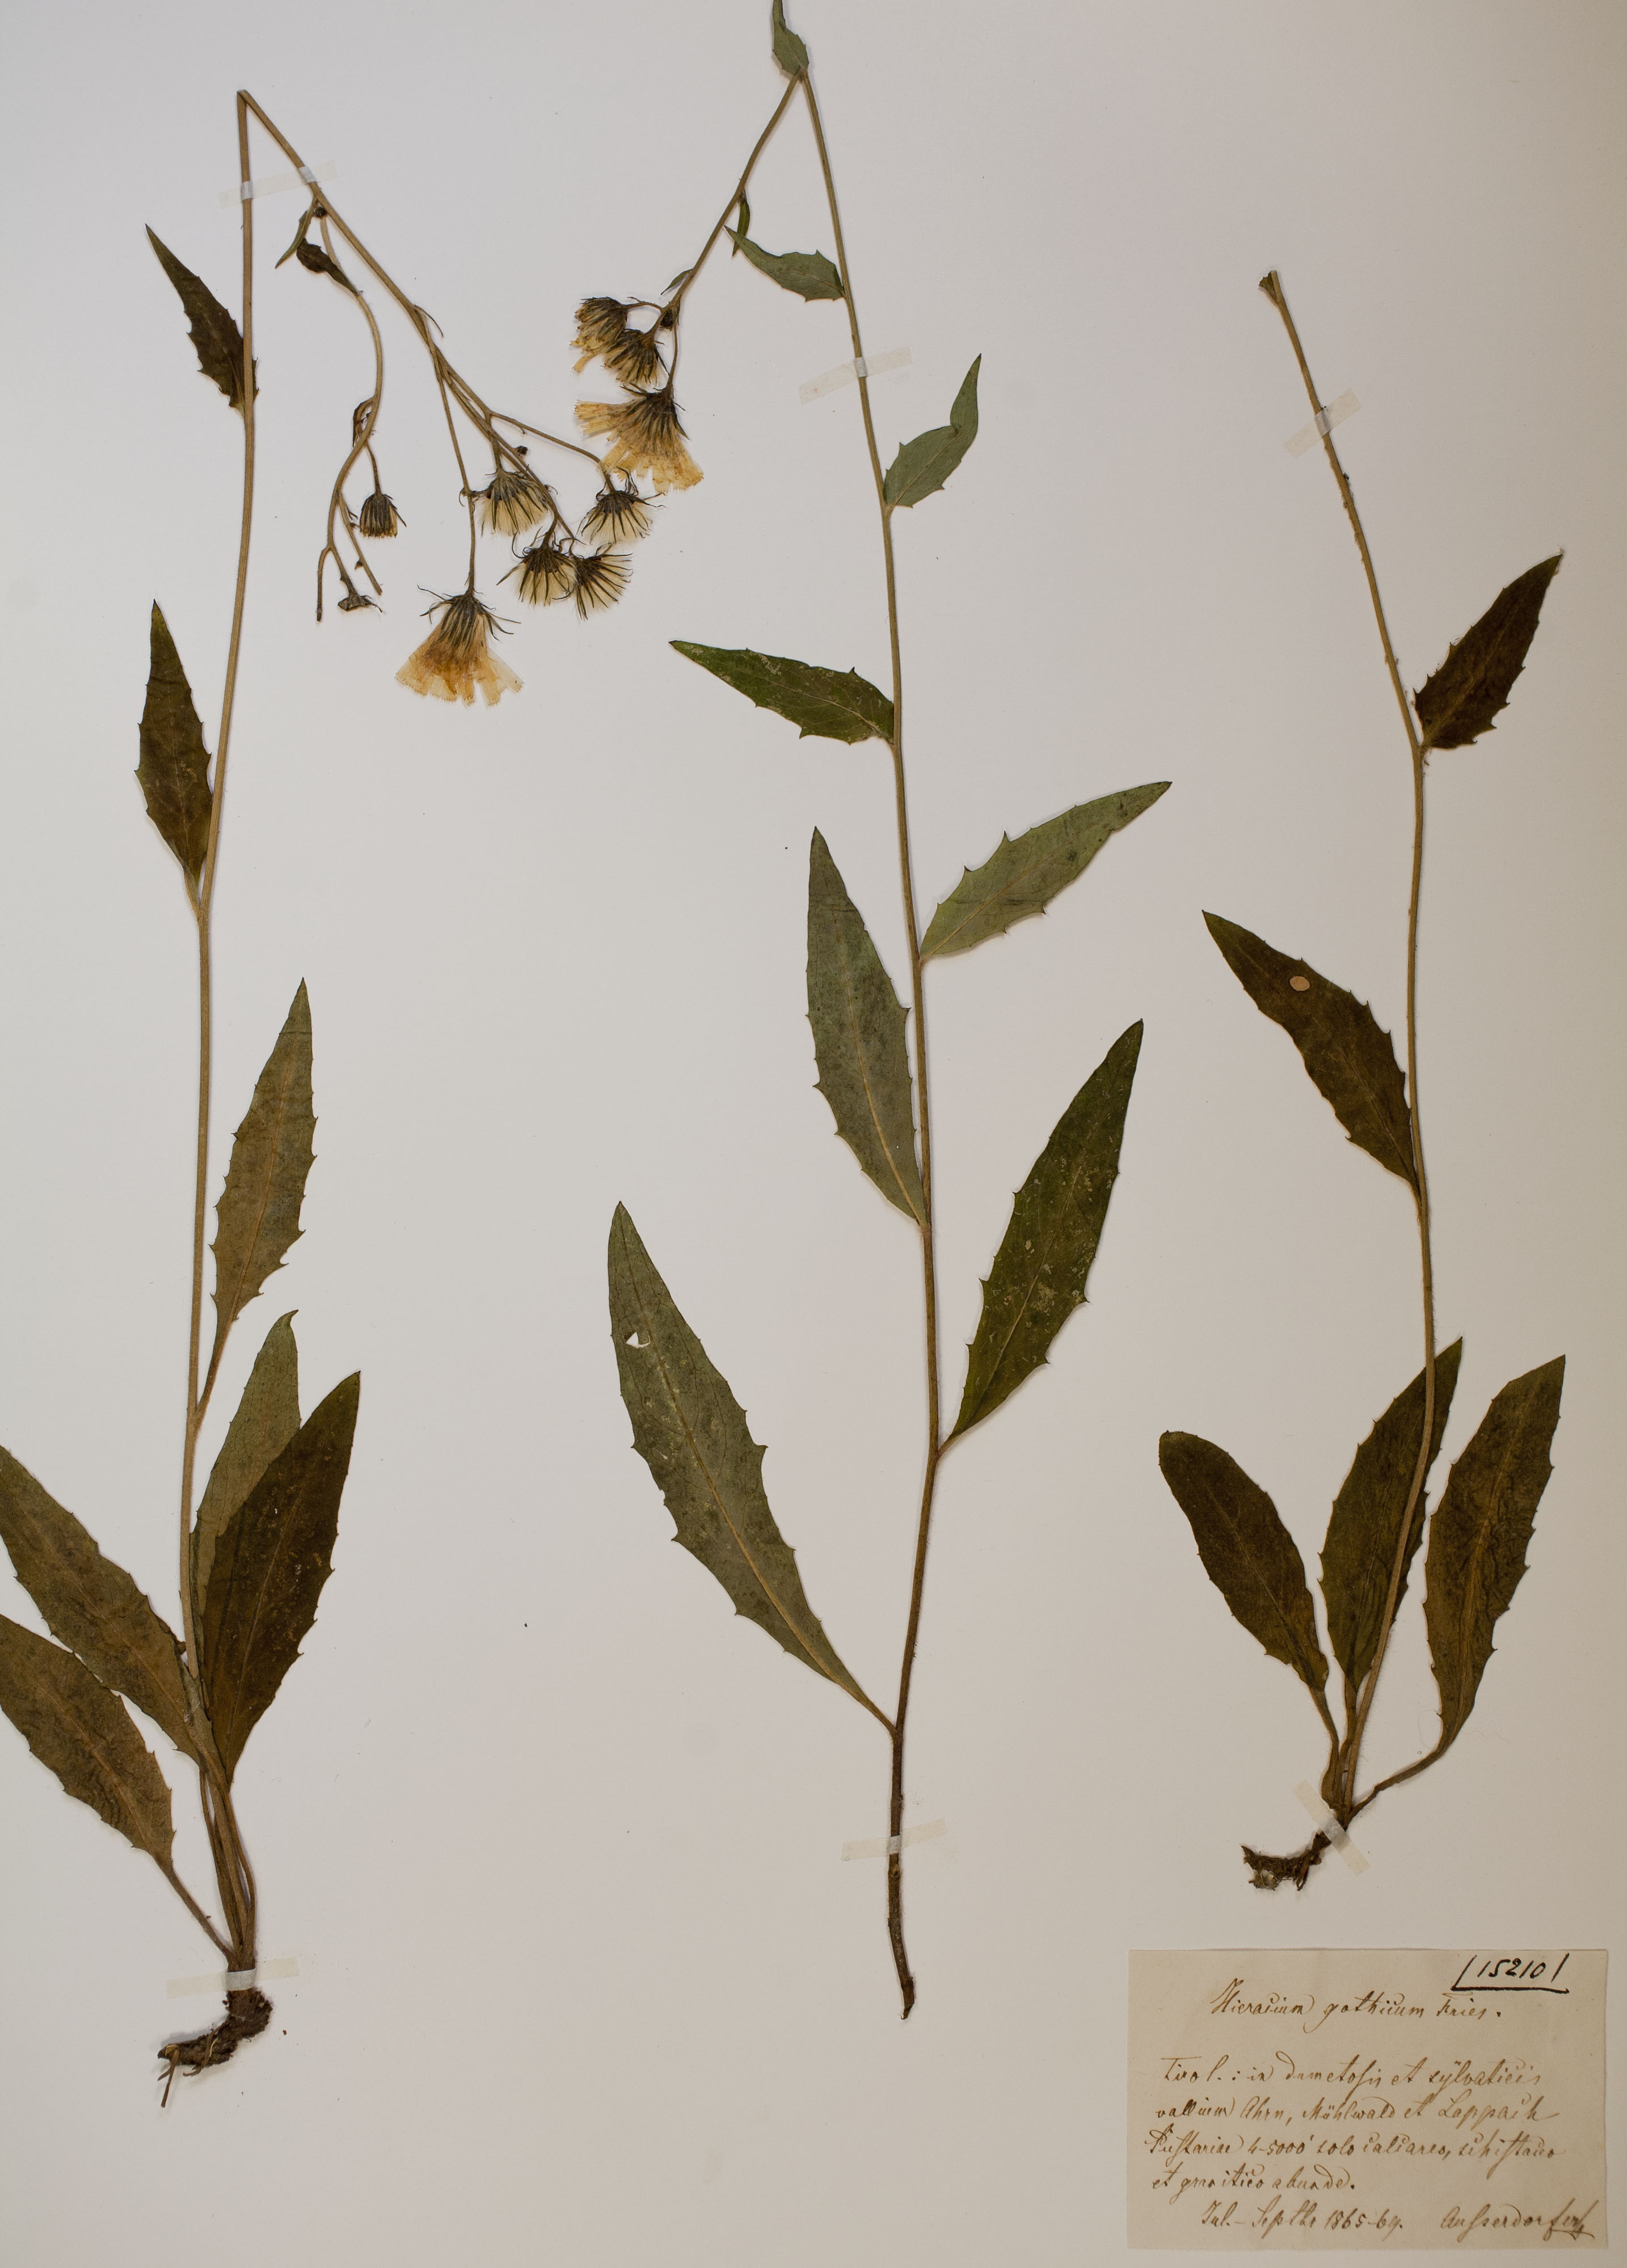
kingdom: Plantae
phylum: Tracheophyta
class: Magnoliopsida
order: Asterales
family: Asteraceae
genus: Hieracium
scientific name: Hieracium laevigatum
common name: Smooth hawkweed
